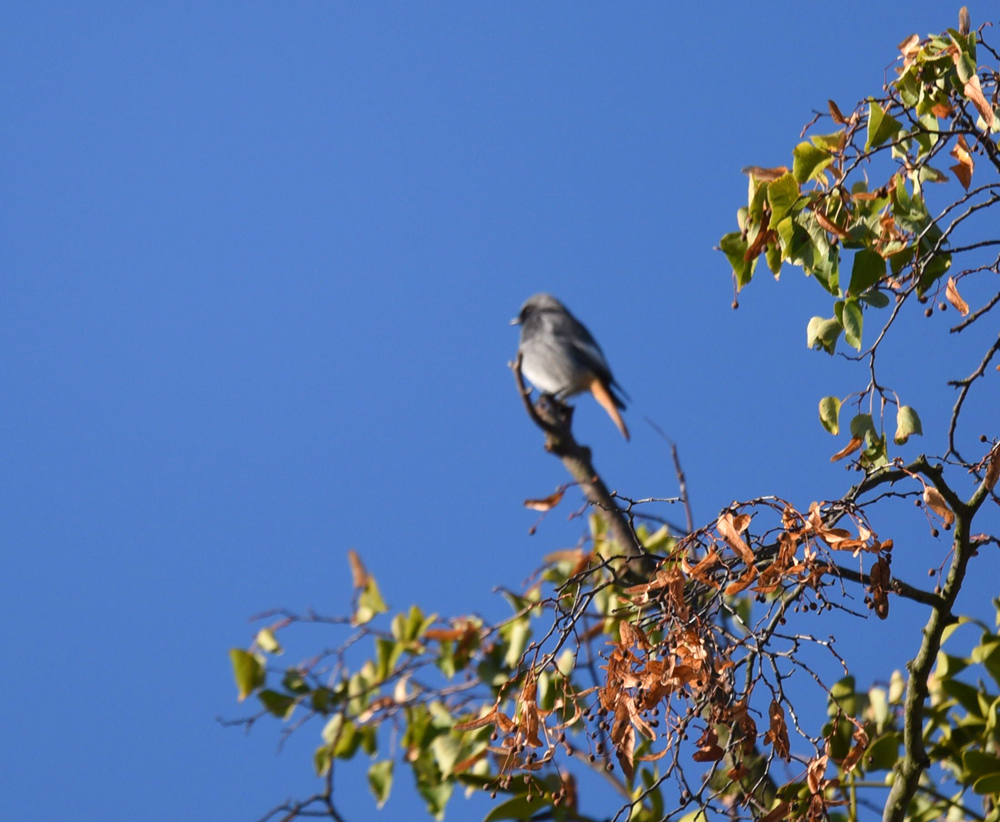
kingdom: Animalia
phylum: Chordata
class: Aves
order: Passeriformes
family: Muscicapidae
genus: Phoenicurus
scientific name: Phoenicurus ochruros
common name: Black redstart
